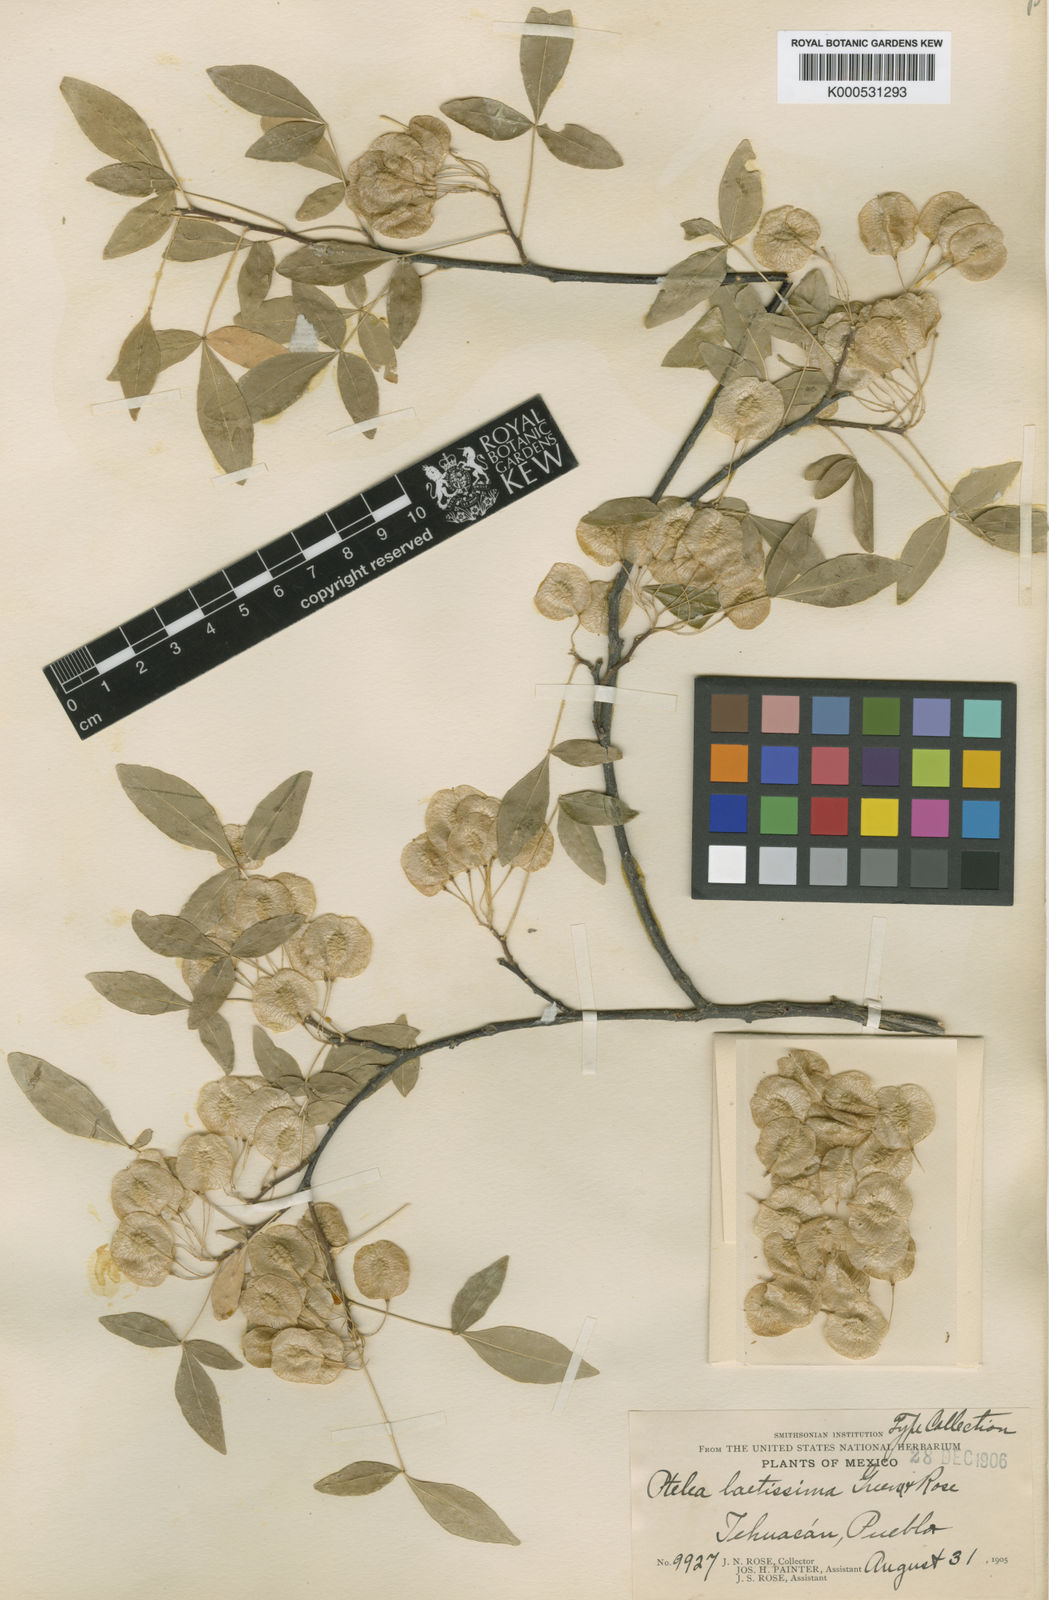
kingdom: Plantae
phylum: Tracheophyta
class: Magnoliopsida
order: Sapindales
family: Rutaceae
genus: Ptelea
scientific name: Ptelea trifoliata
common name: Common hop-tree
